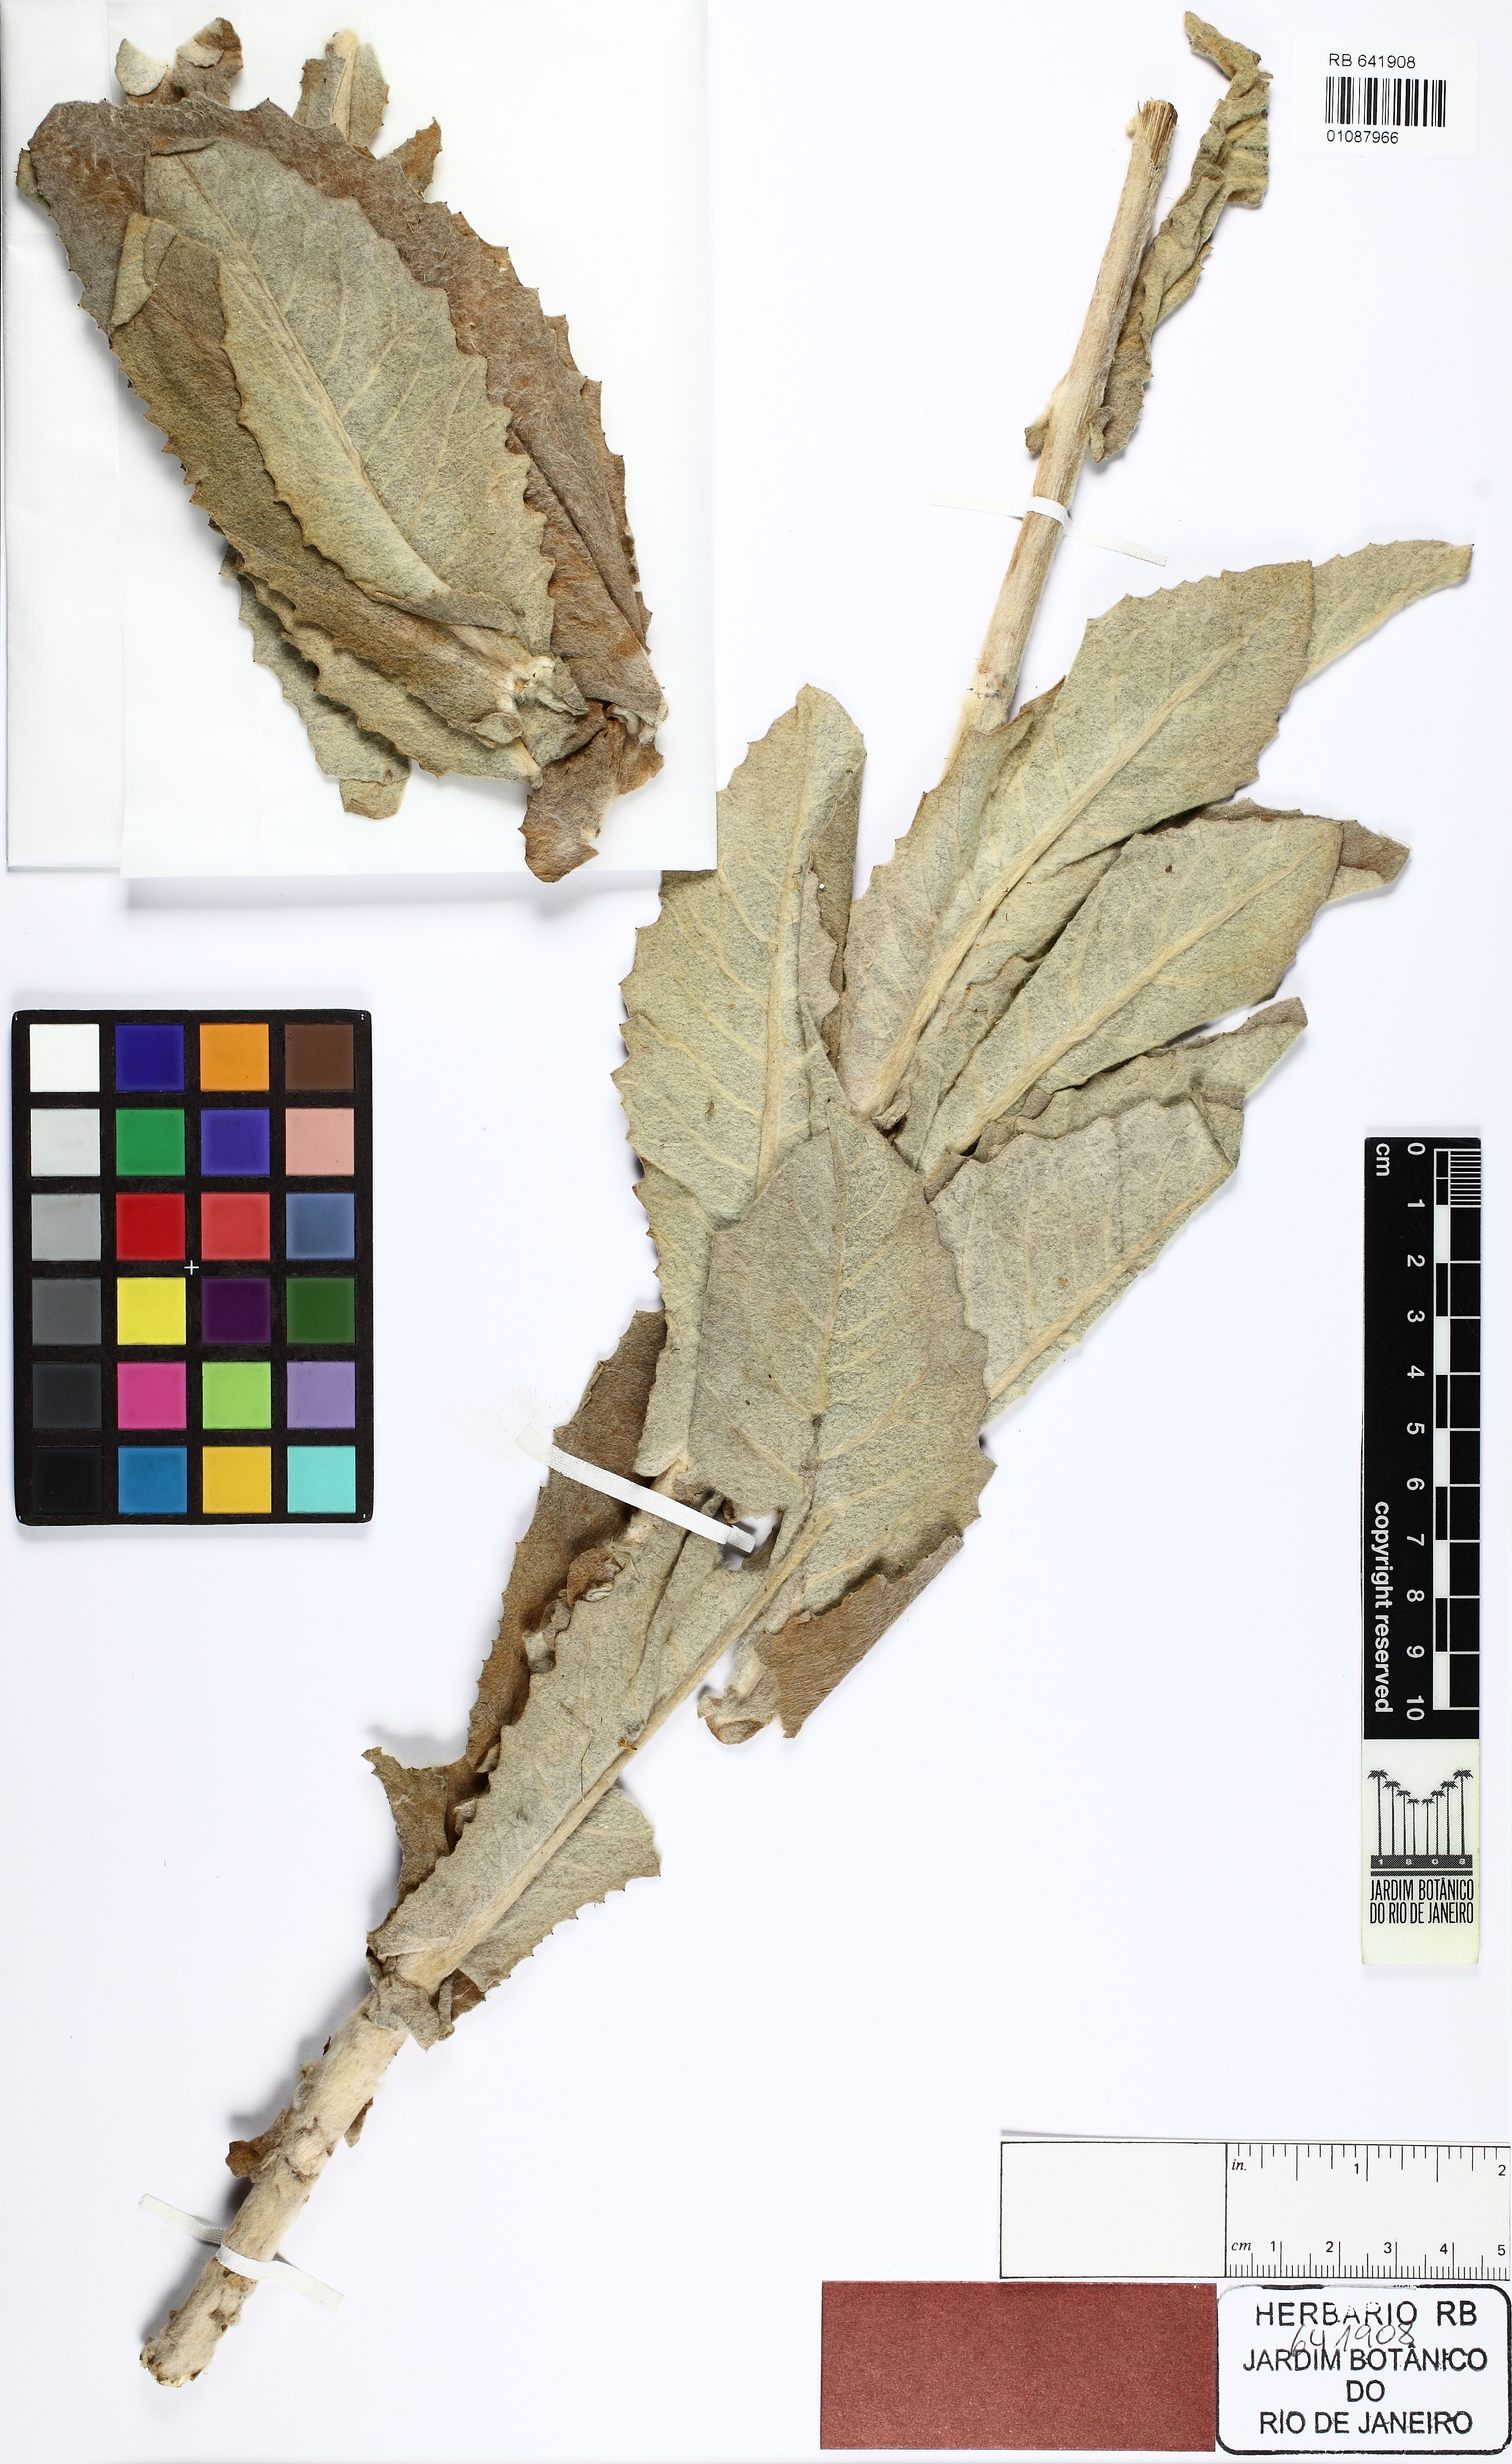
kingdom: Plantae
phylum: Tracheophyta
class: Magnoliopsida
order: Asterales
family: Asteraceae
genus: Senecio
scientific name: Senecio gertii
